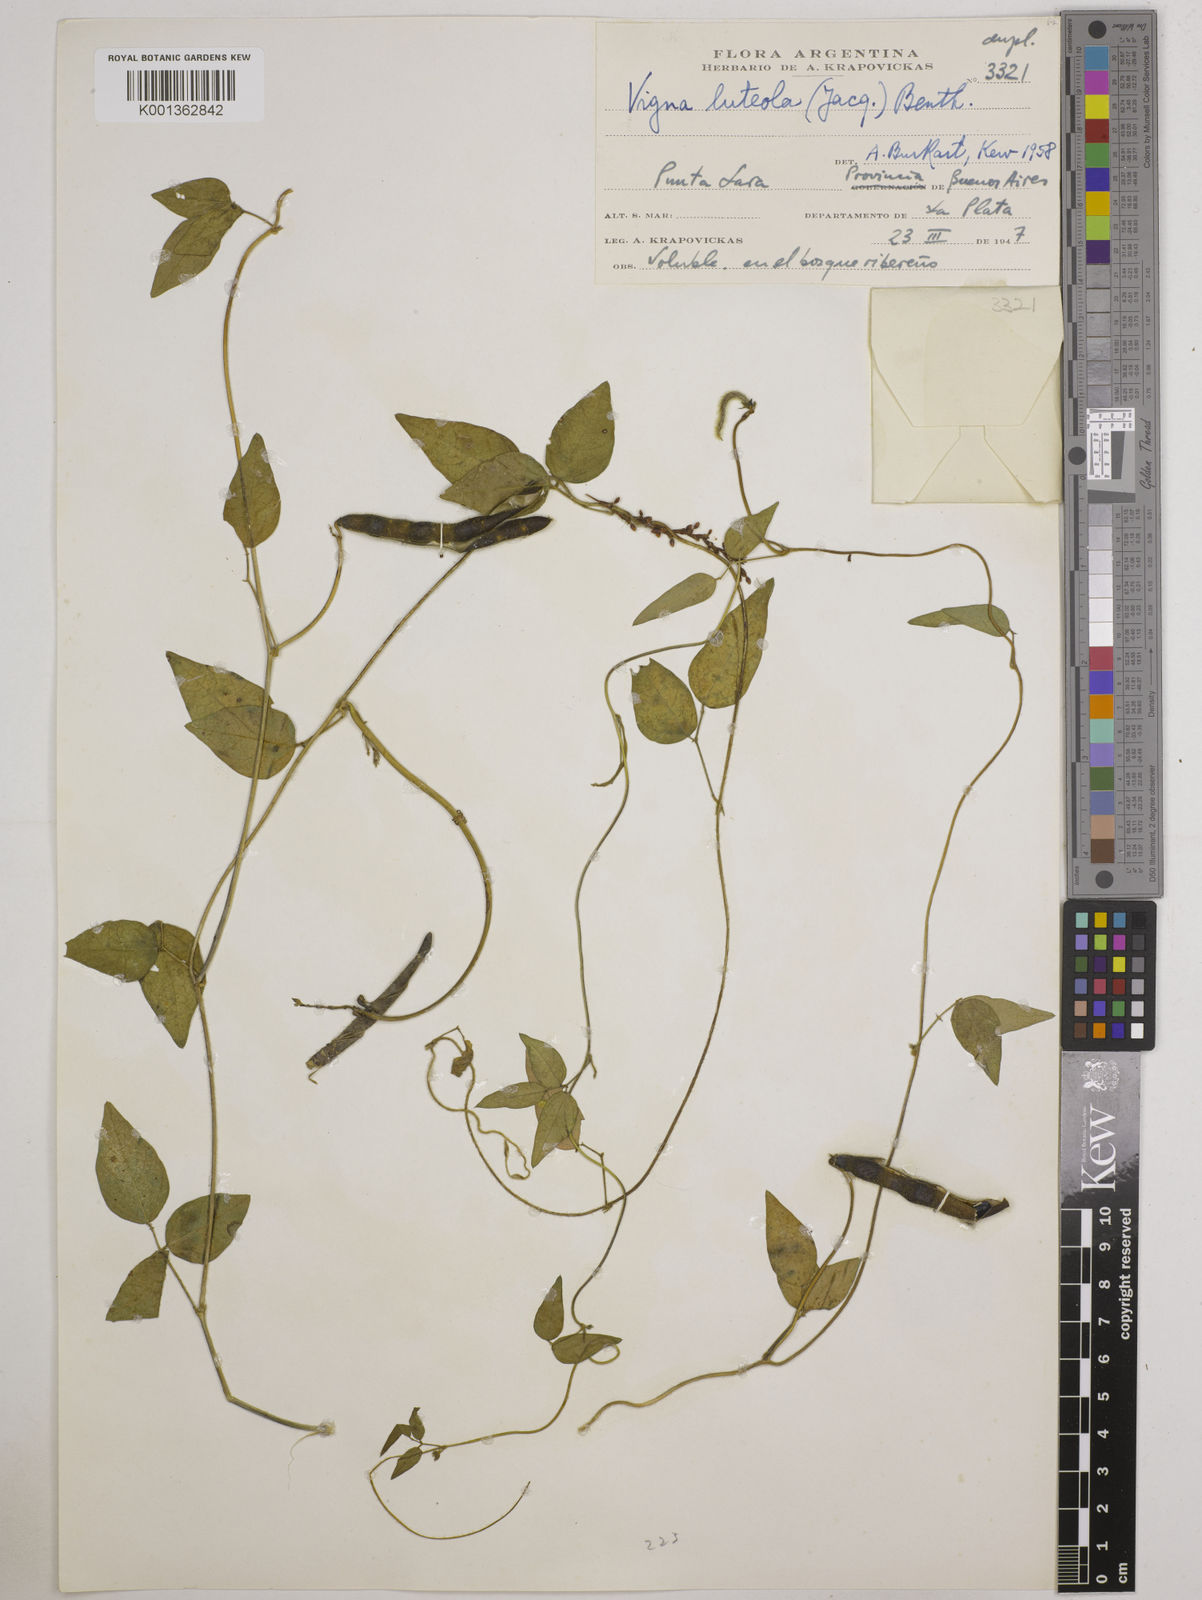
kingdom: Plantae
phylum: Tracheophyta
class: Magnoliopsida
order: Fabales
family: Fabaceae
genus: Vigna
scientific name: Vigna luteola
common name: Hairypod cowpea
